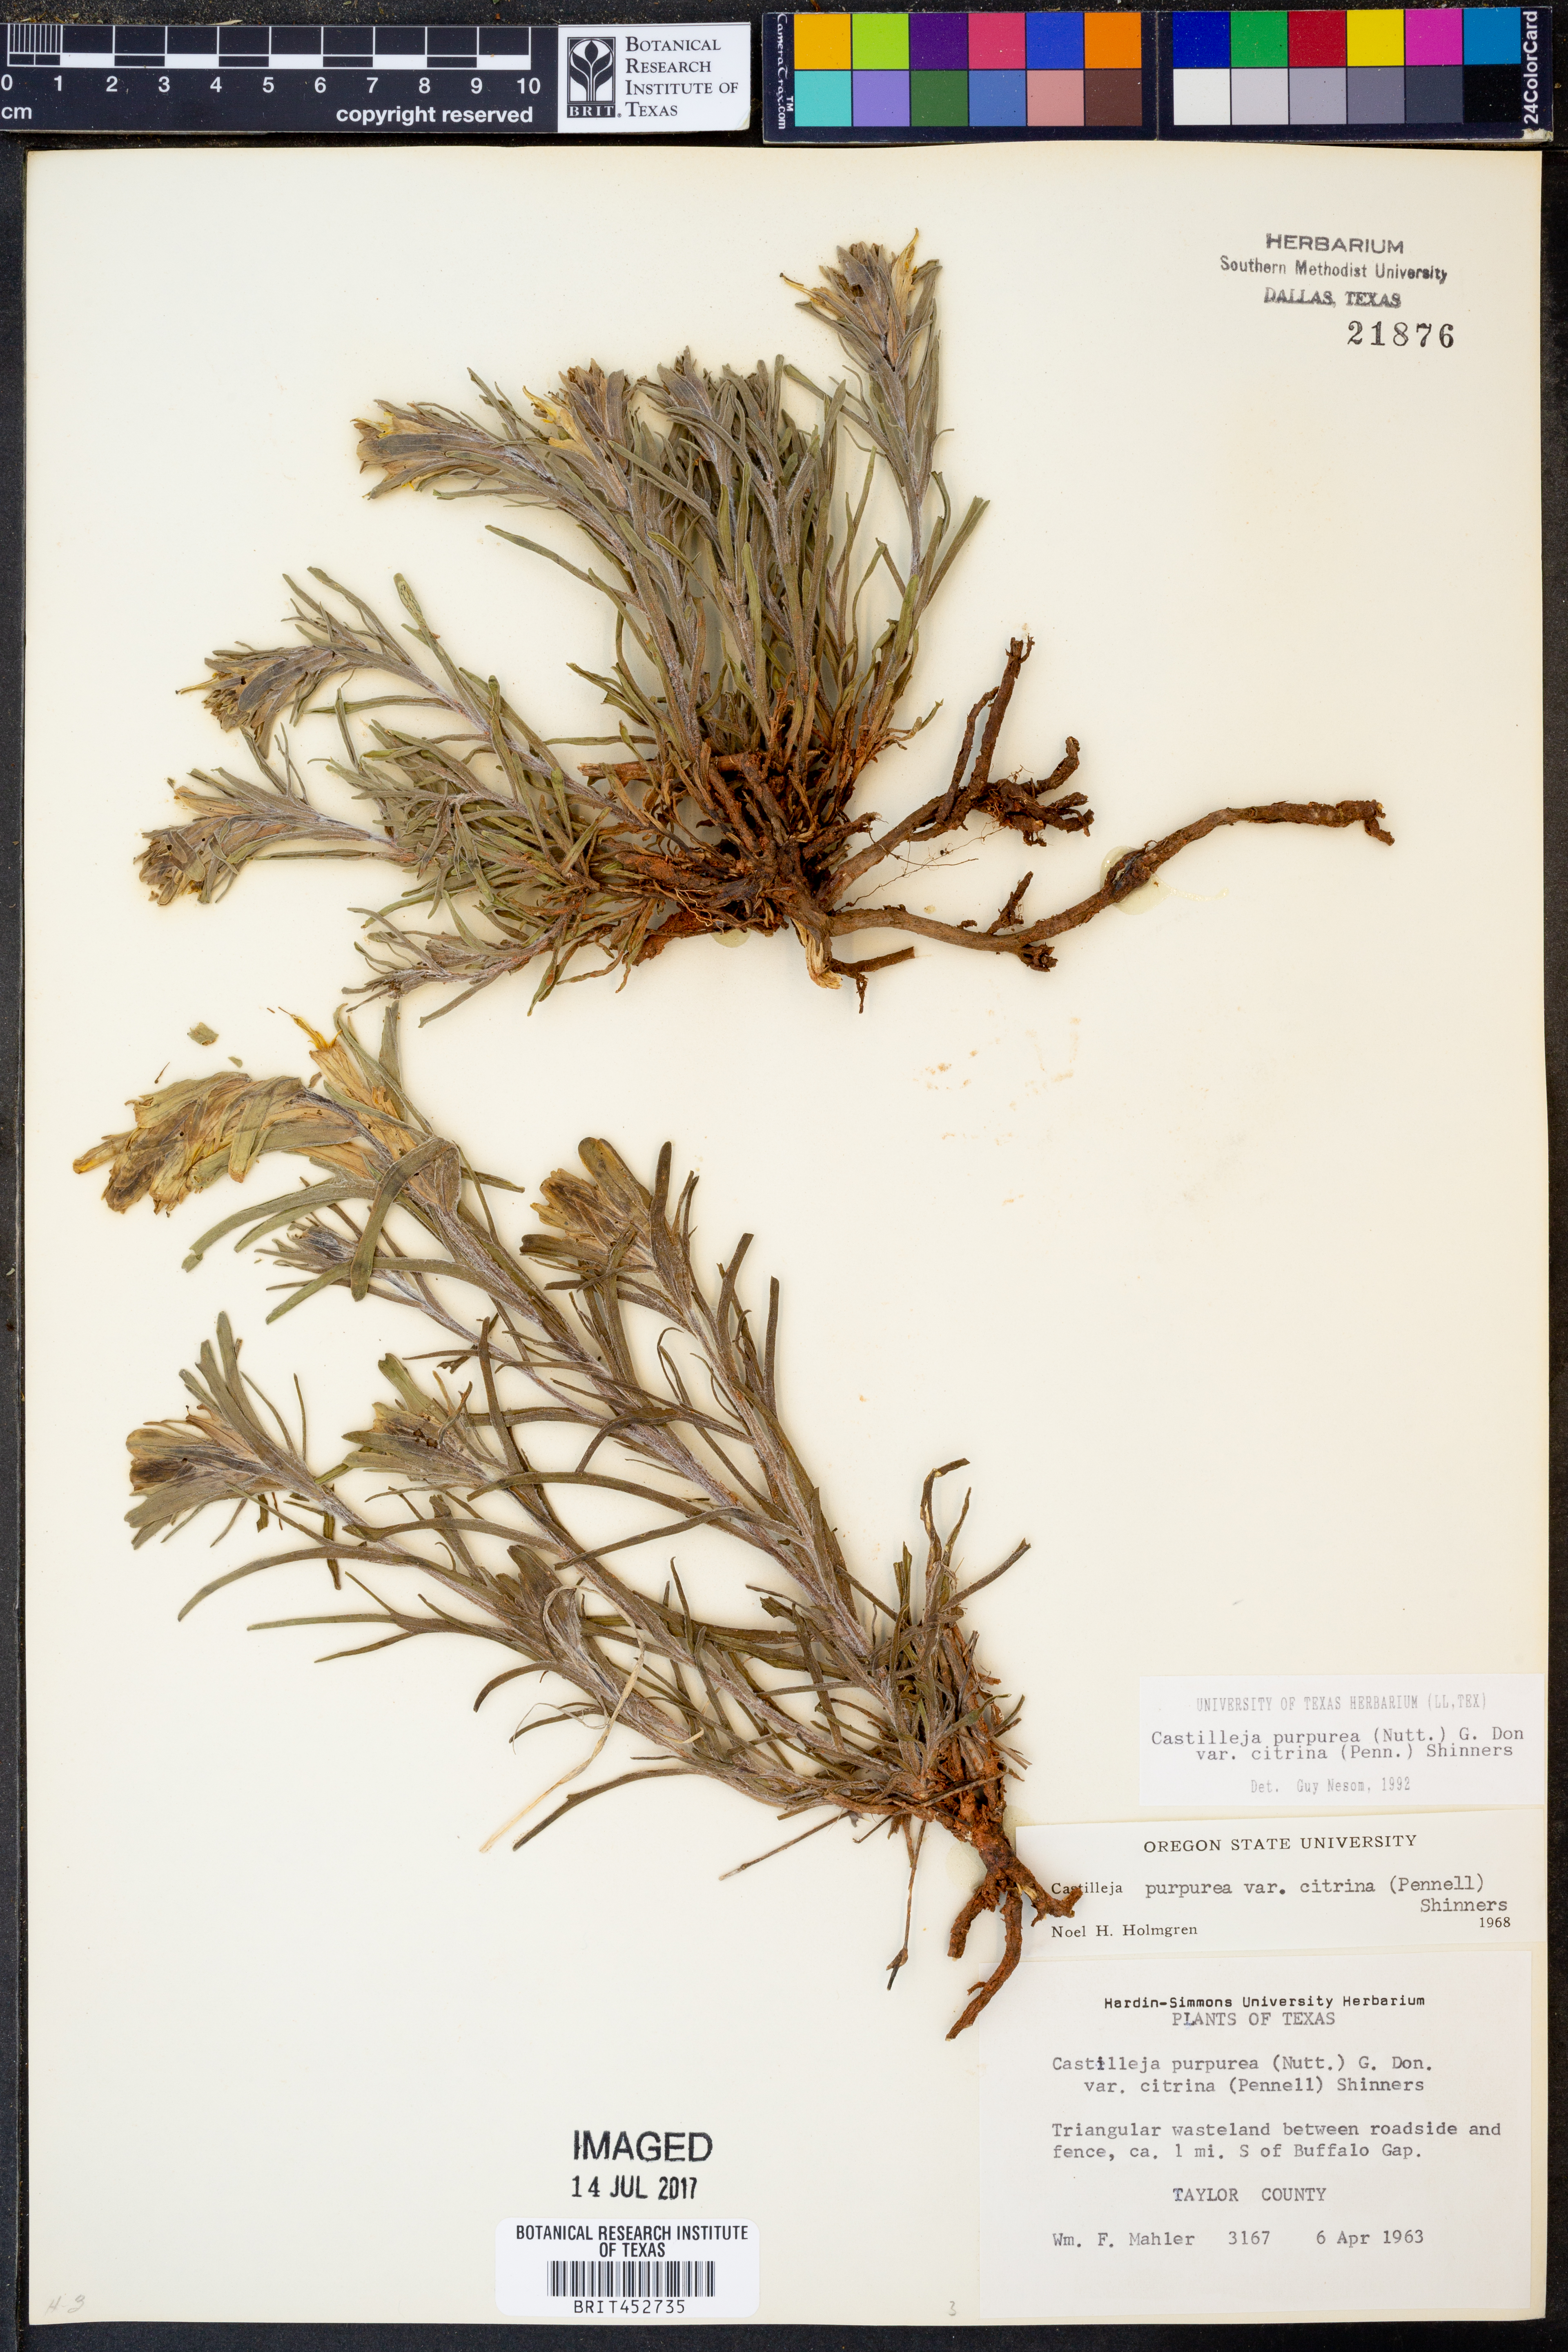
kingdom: Plantae
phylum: Tracheophyta
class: Magnoliopsida
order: Lamiales
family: Orobanchaceae
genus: Castilleja
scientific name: Castilleja citrina
